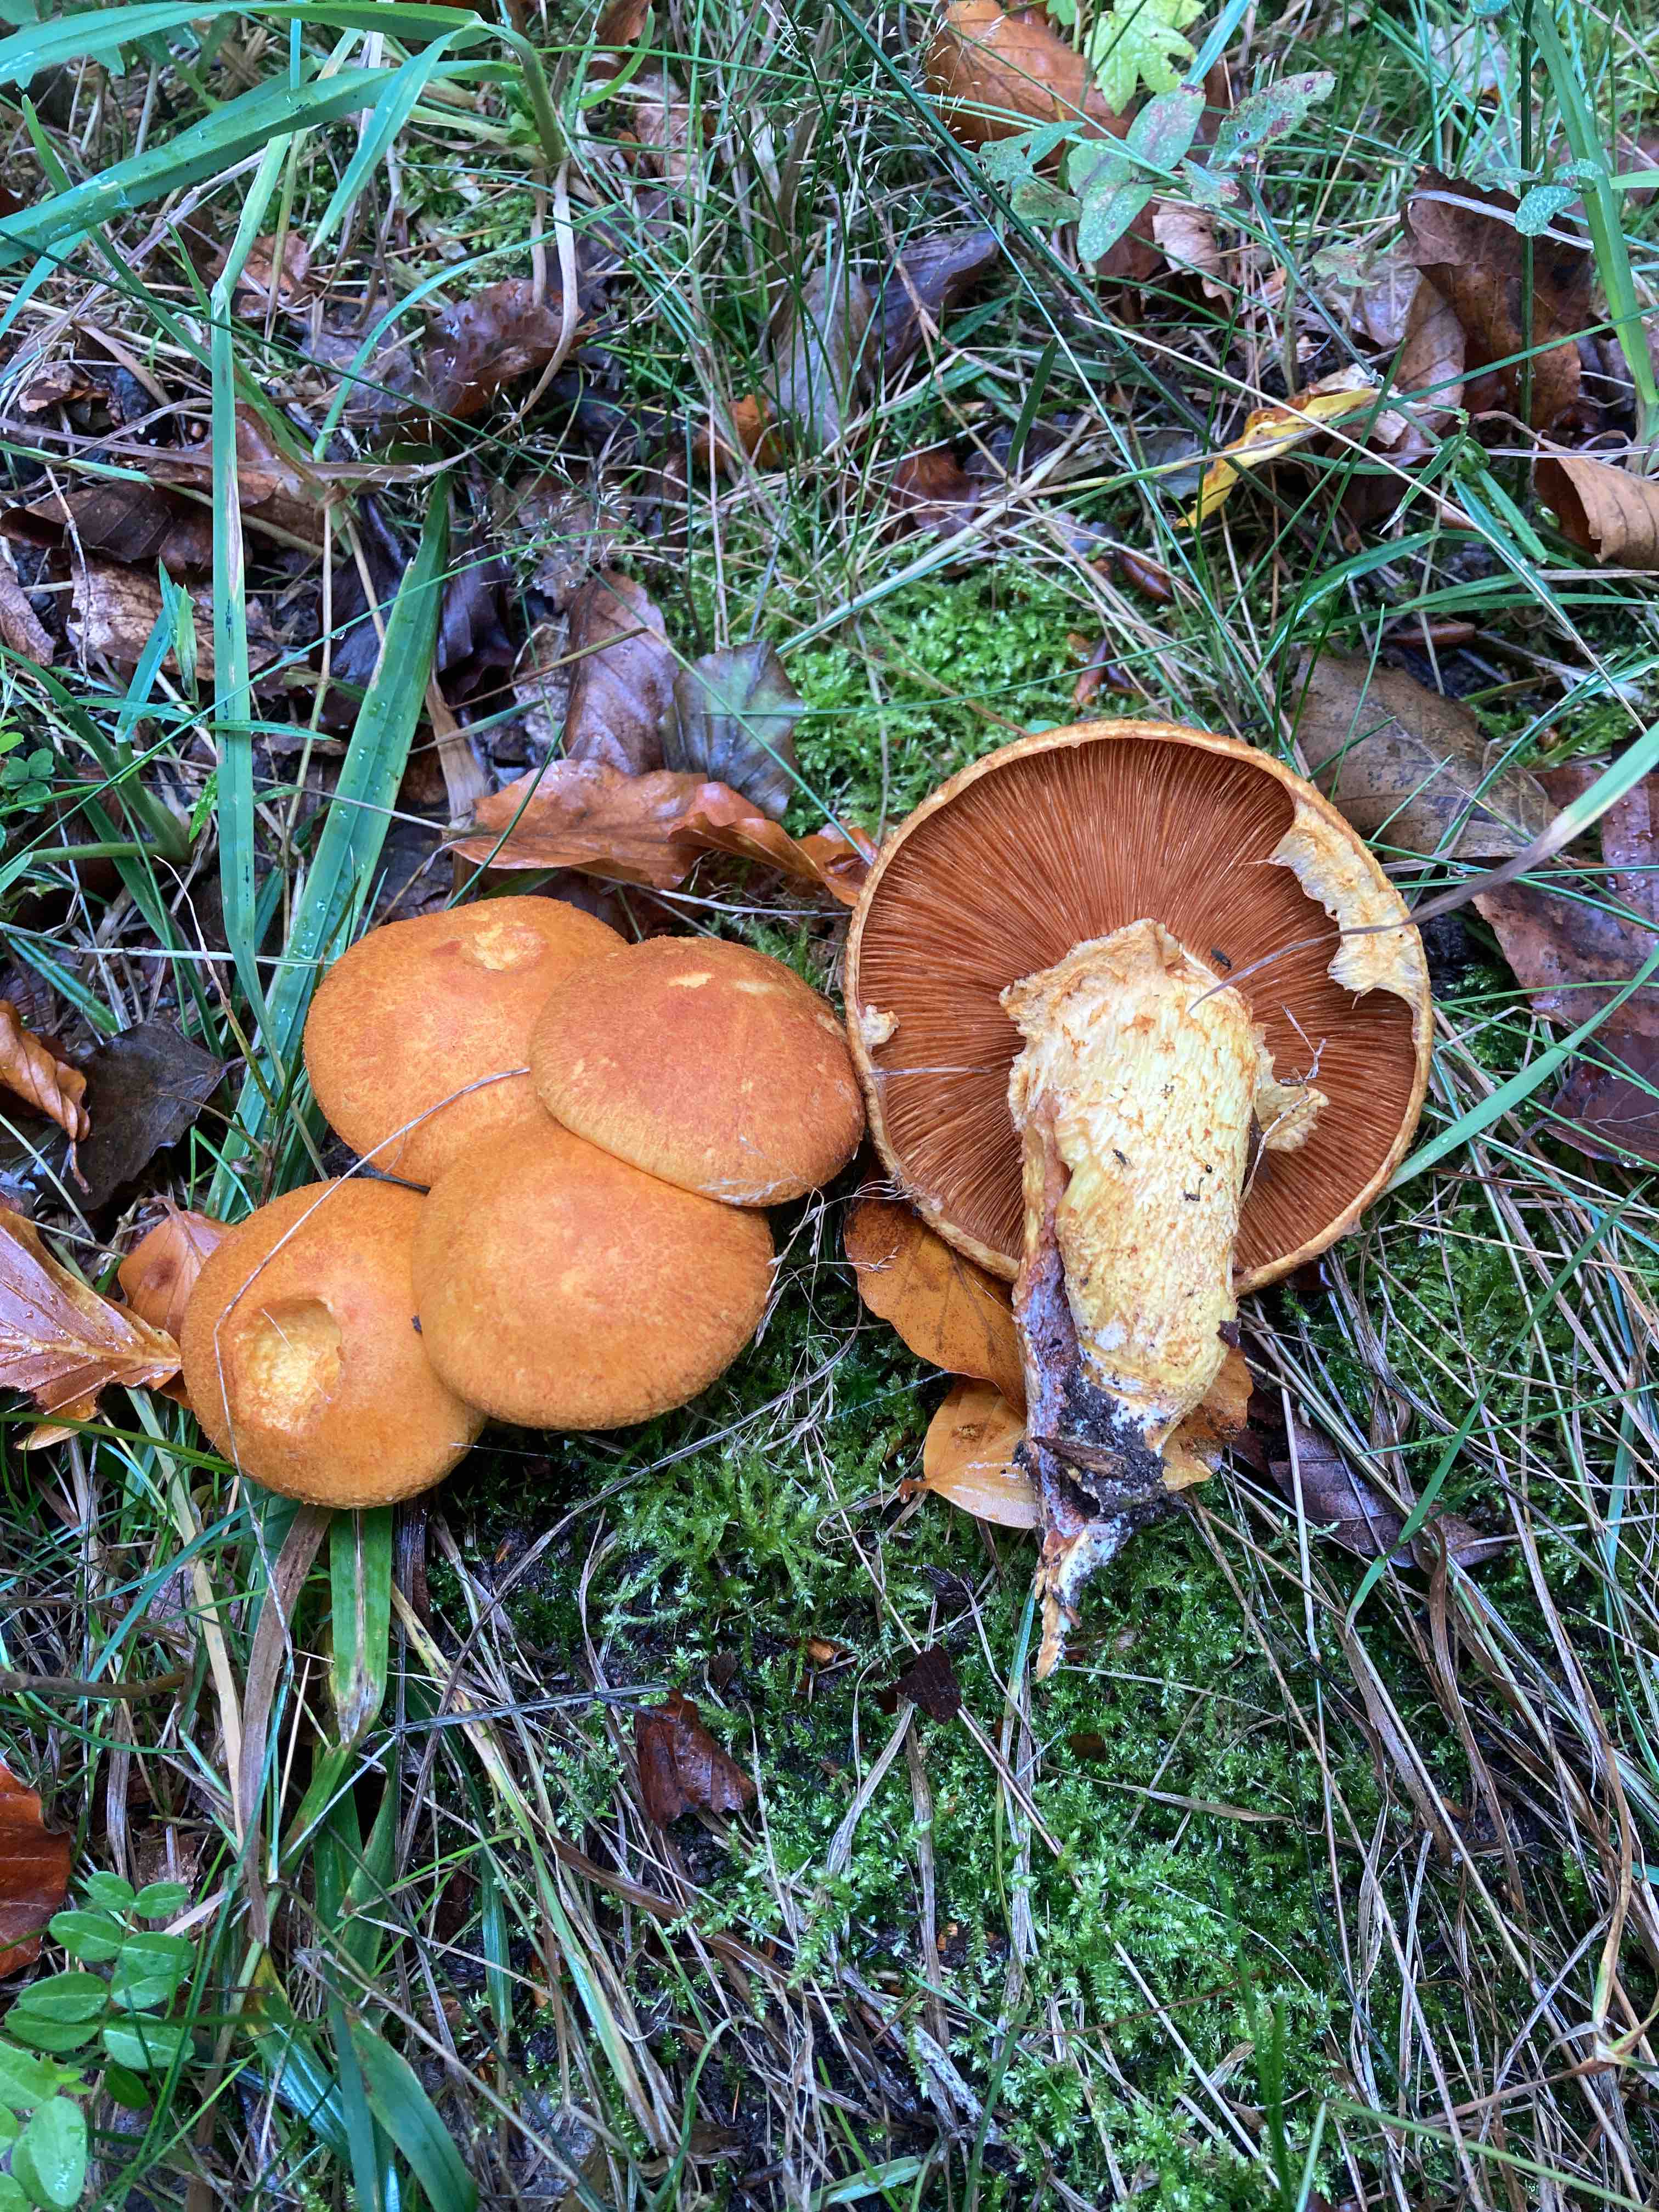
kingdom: Fungi
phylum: Basidiomycota
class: Agaricomycetes
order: Agaricales
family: Hymenogastraceae
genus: Gymnopilus
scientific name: Gymnopilus spectabilis
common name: fibret flammehat
